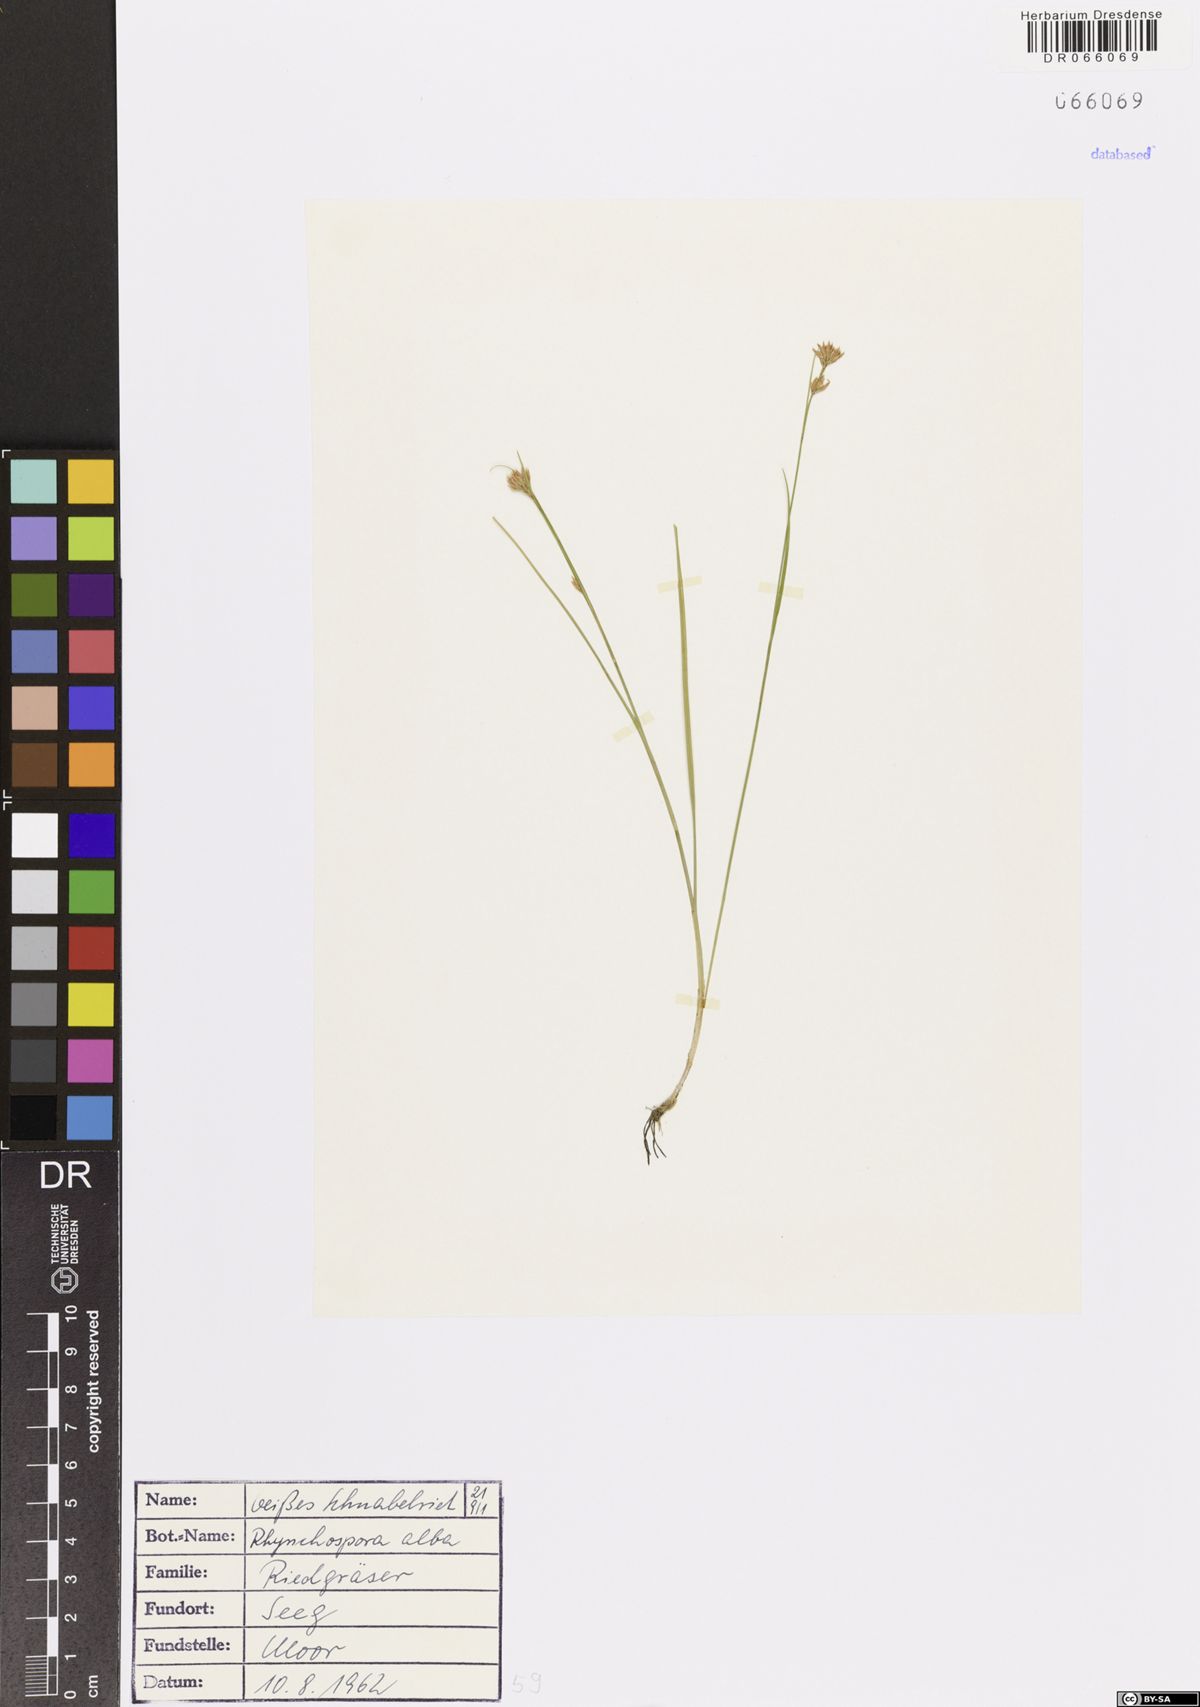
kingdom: Plantae
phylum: Tracheophyta
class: Liliopsida
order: Poales
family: Cyperaceae
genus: Rhynchospora
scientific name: Rhynchospora alba
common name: White beak-sedge
